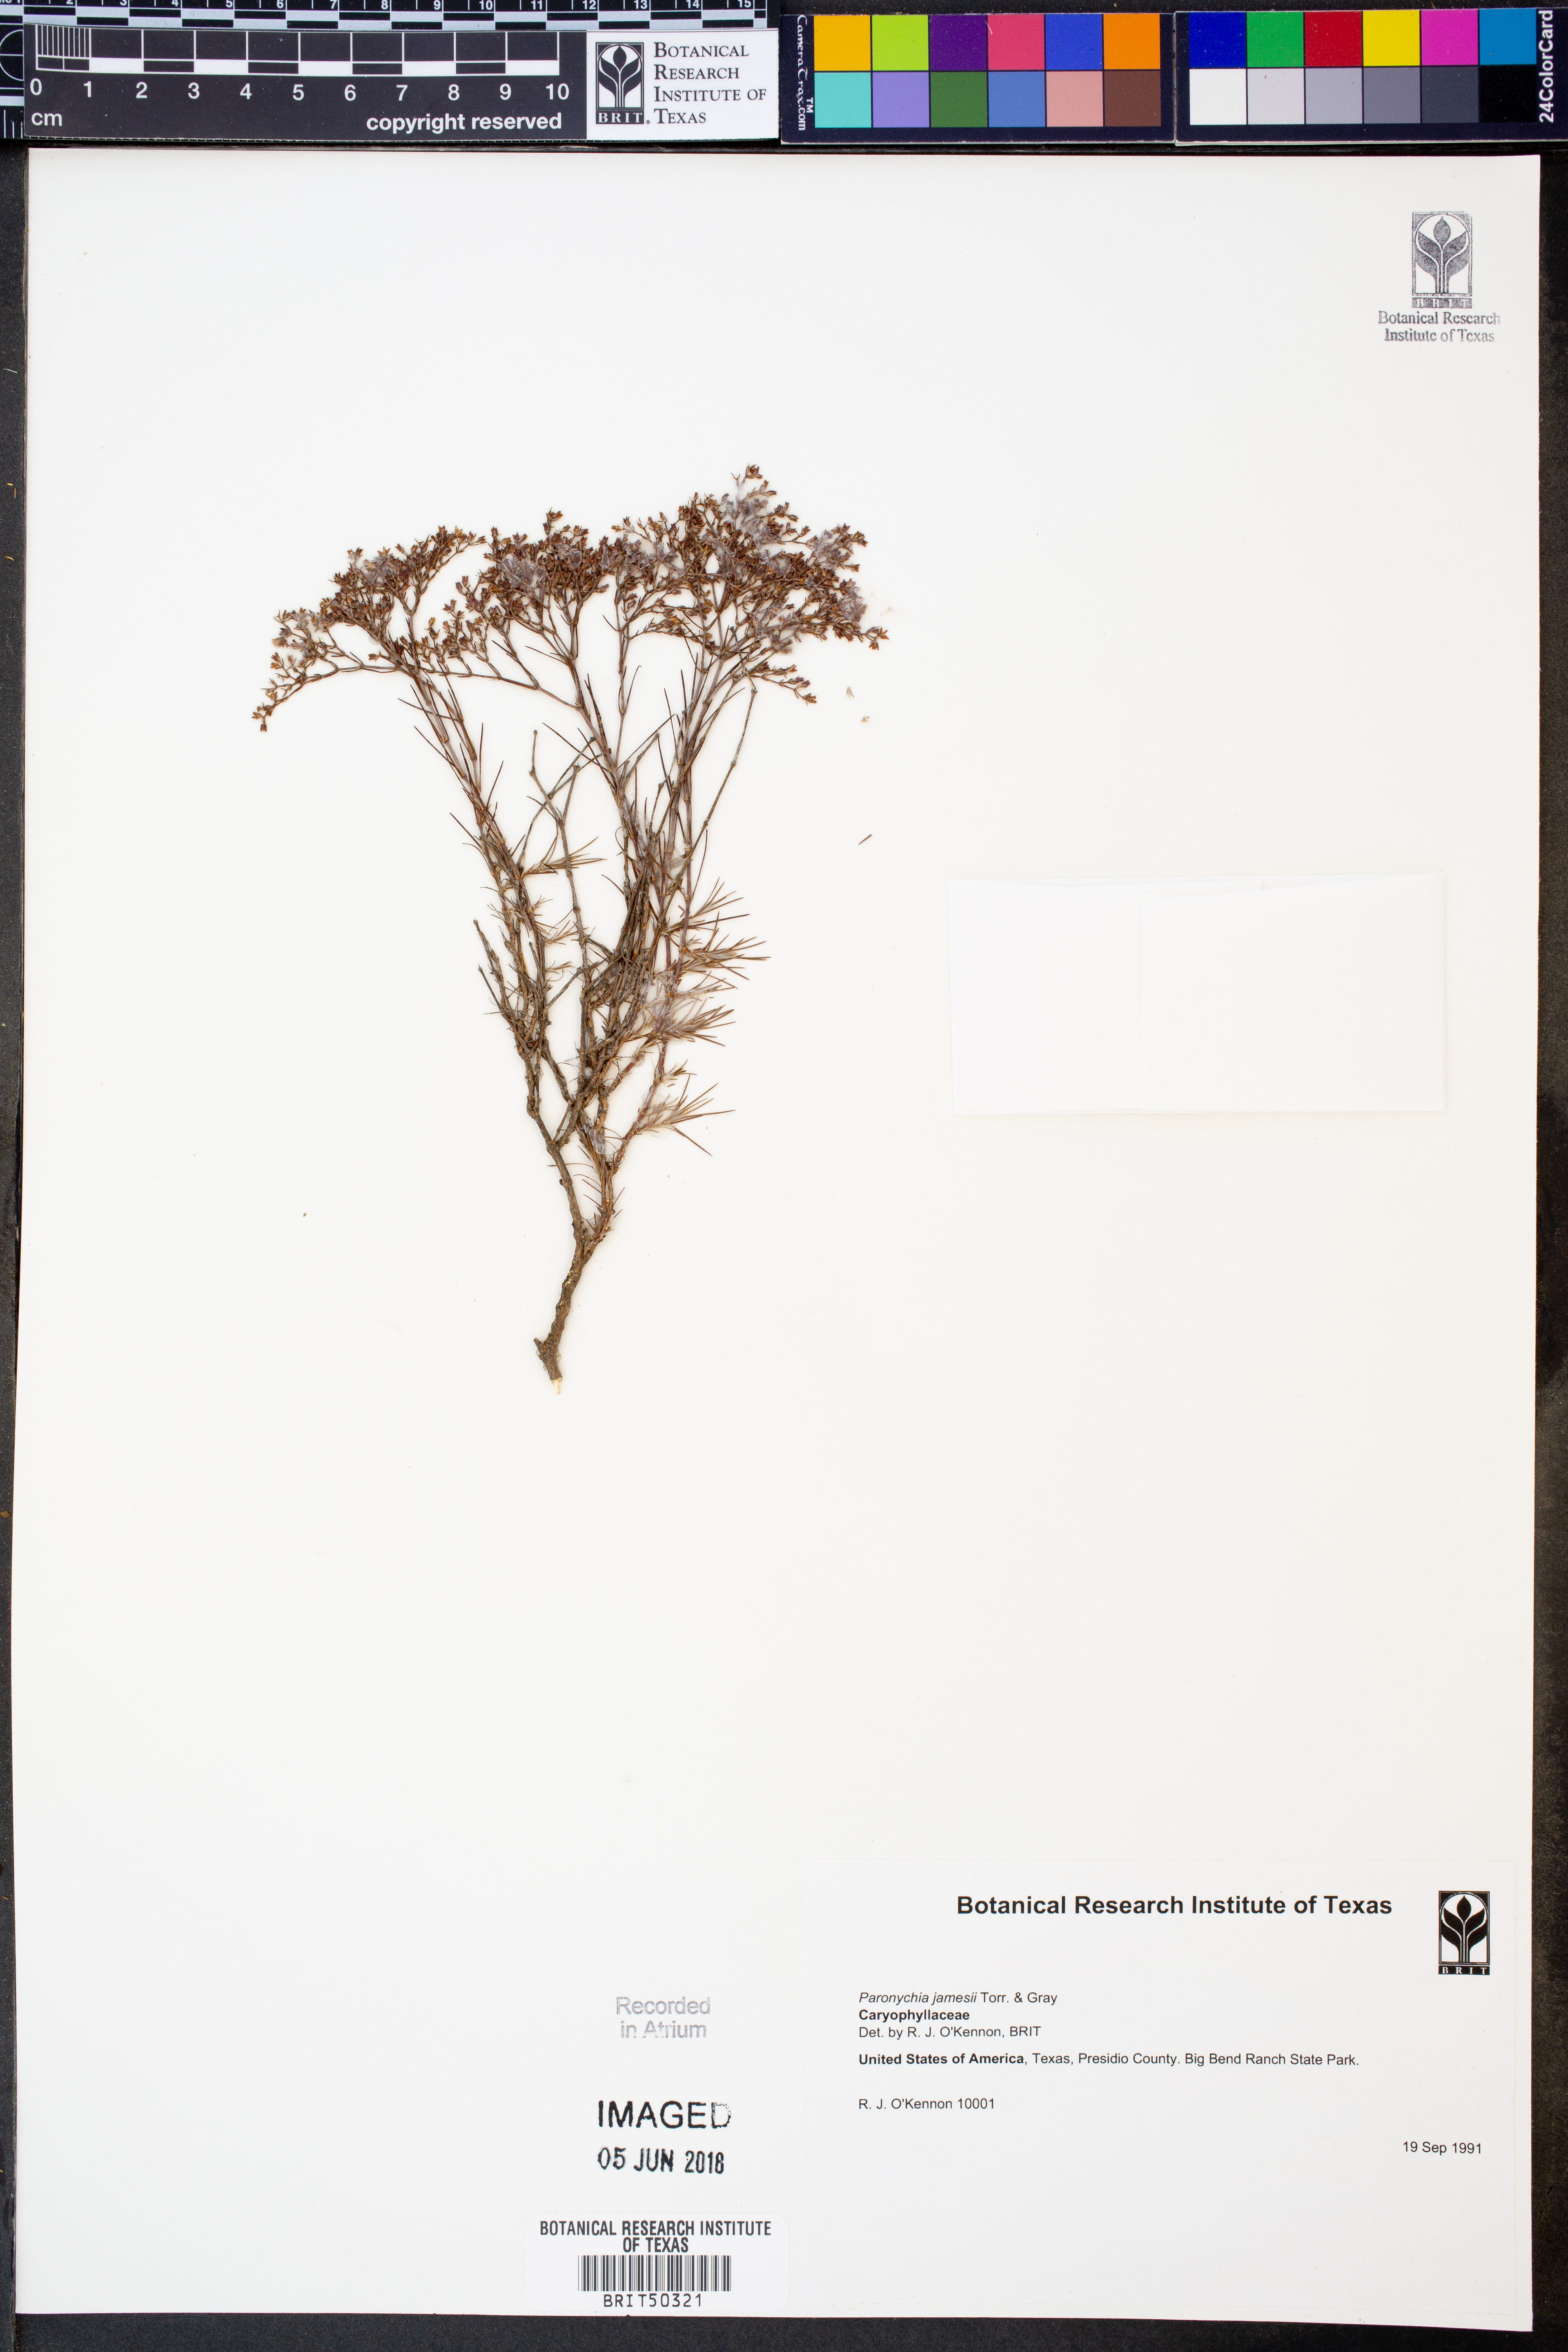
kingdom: Plantae
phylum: Tracheophyta
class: Magnoliopsida
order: Caryophyllales
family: Caryophyllaceae
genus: Paronychia
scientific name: Paronychia jamesii
